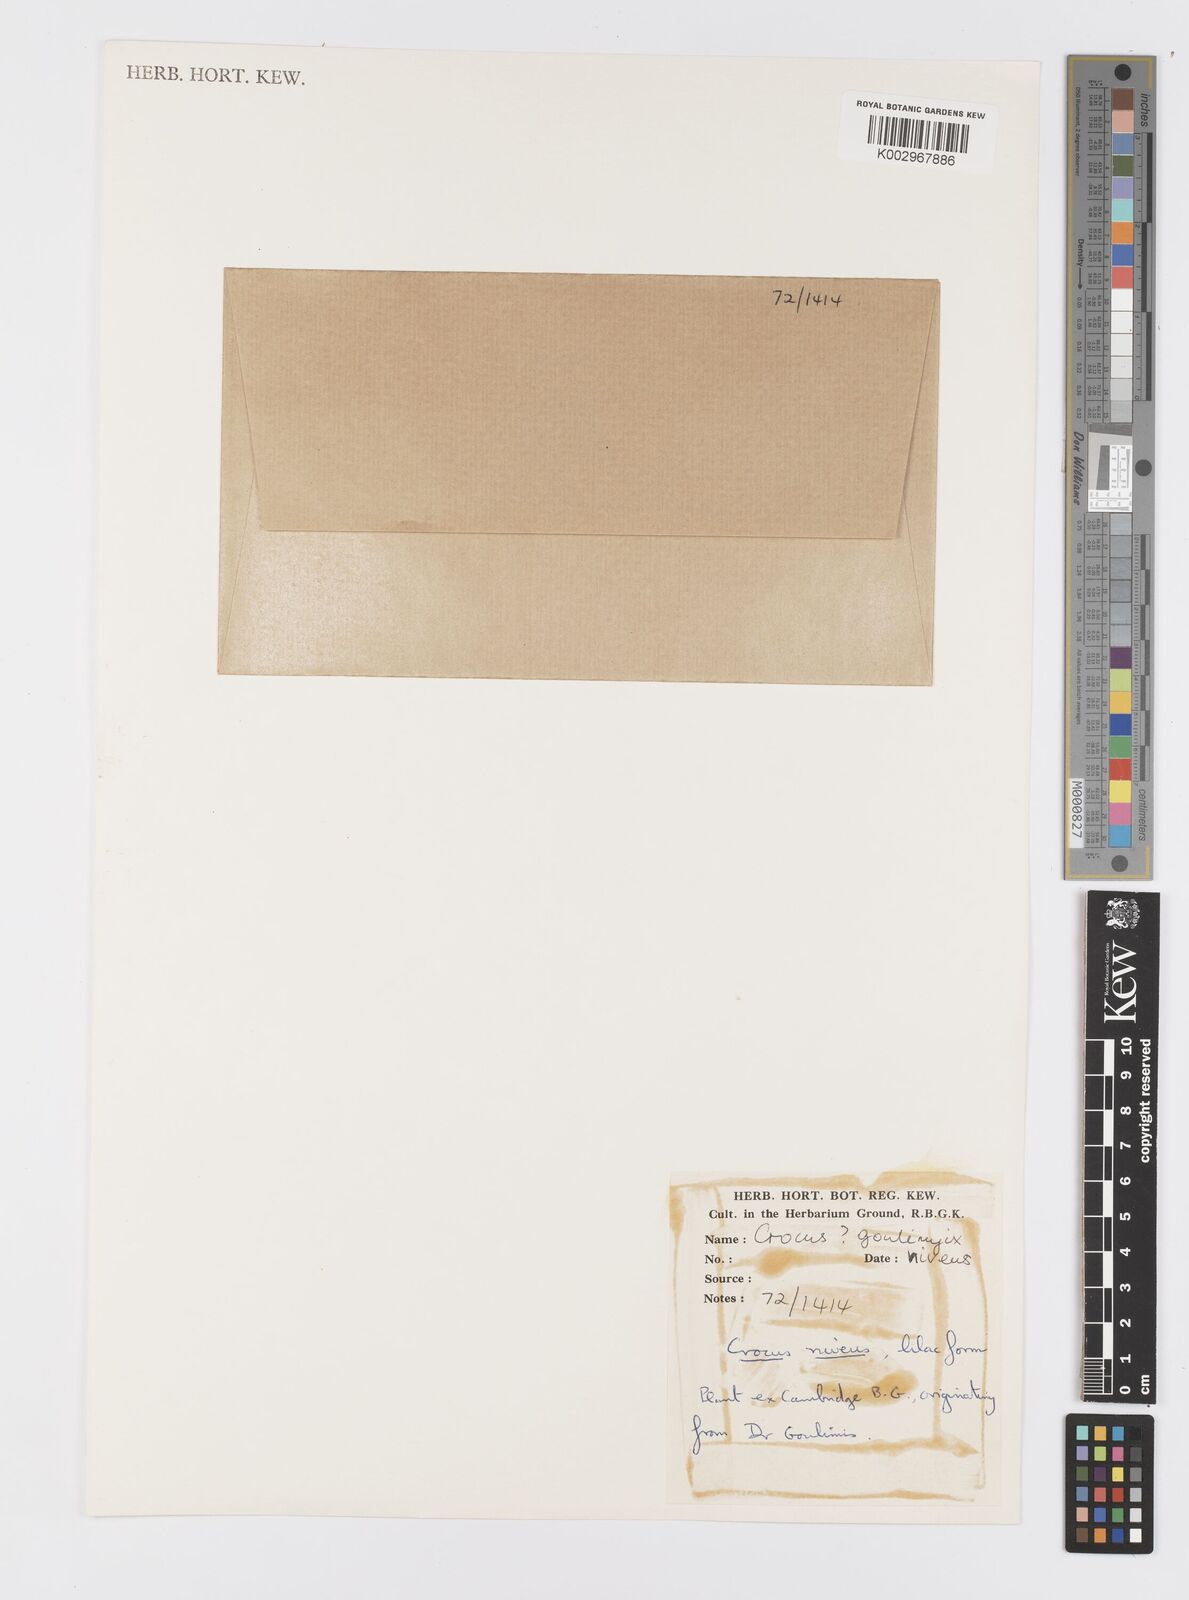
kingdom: Plantae
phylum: Tracheophyta
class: Liliopsida
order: Asparagales
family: Iridaceae
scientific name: Iridaceae
